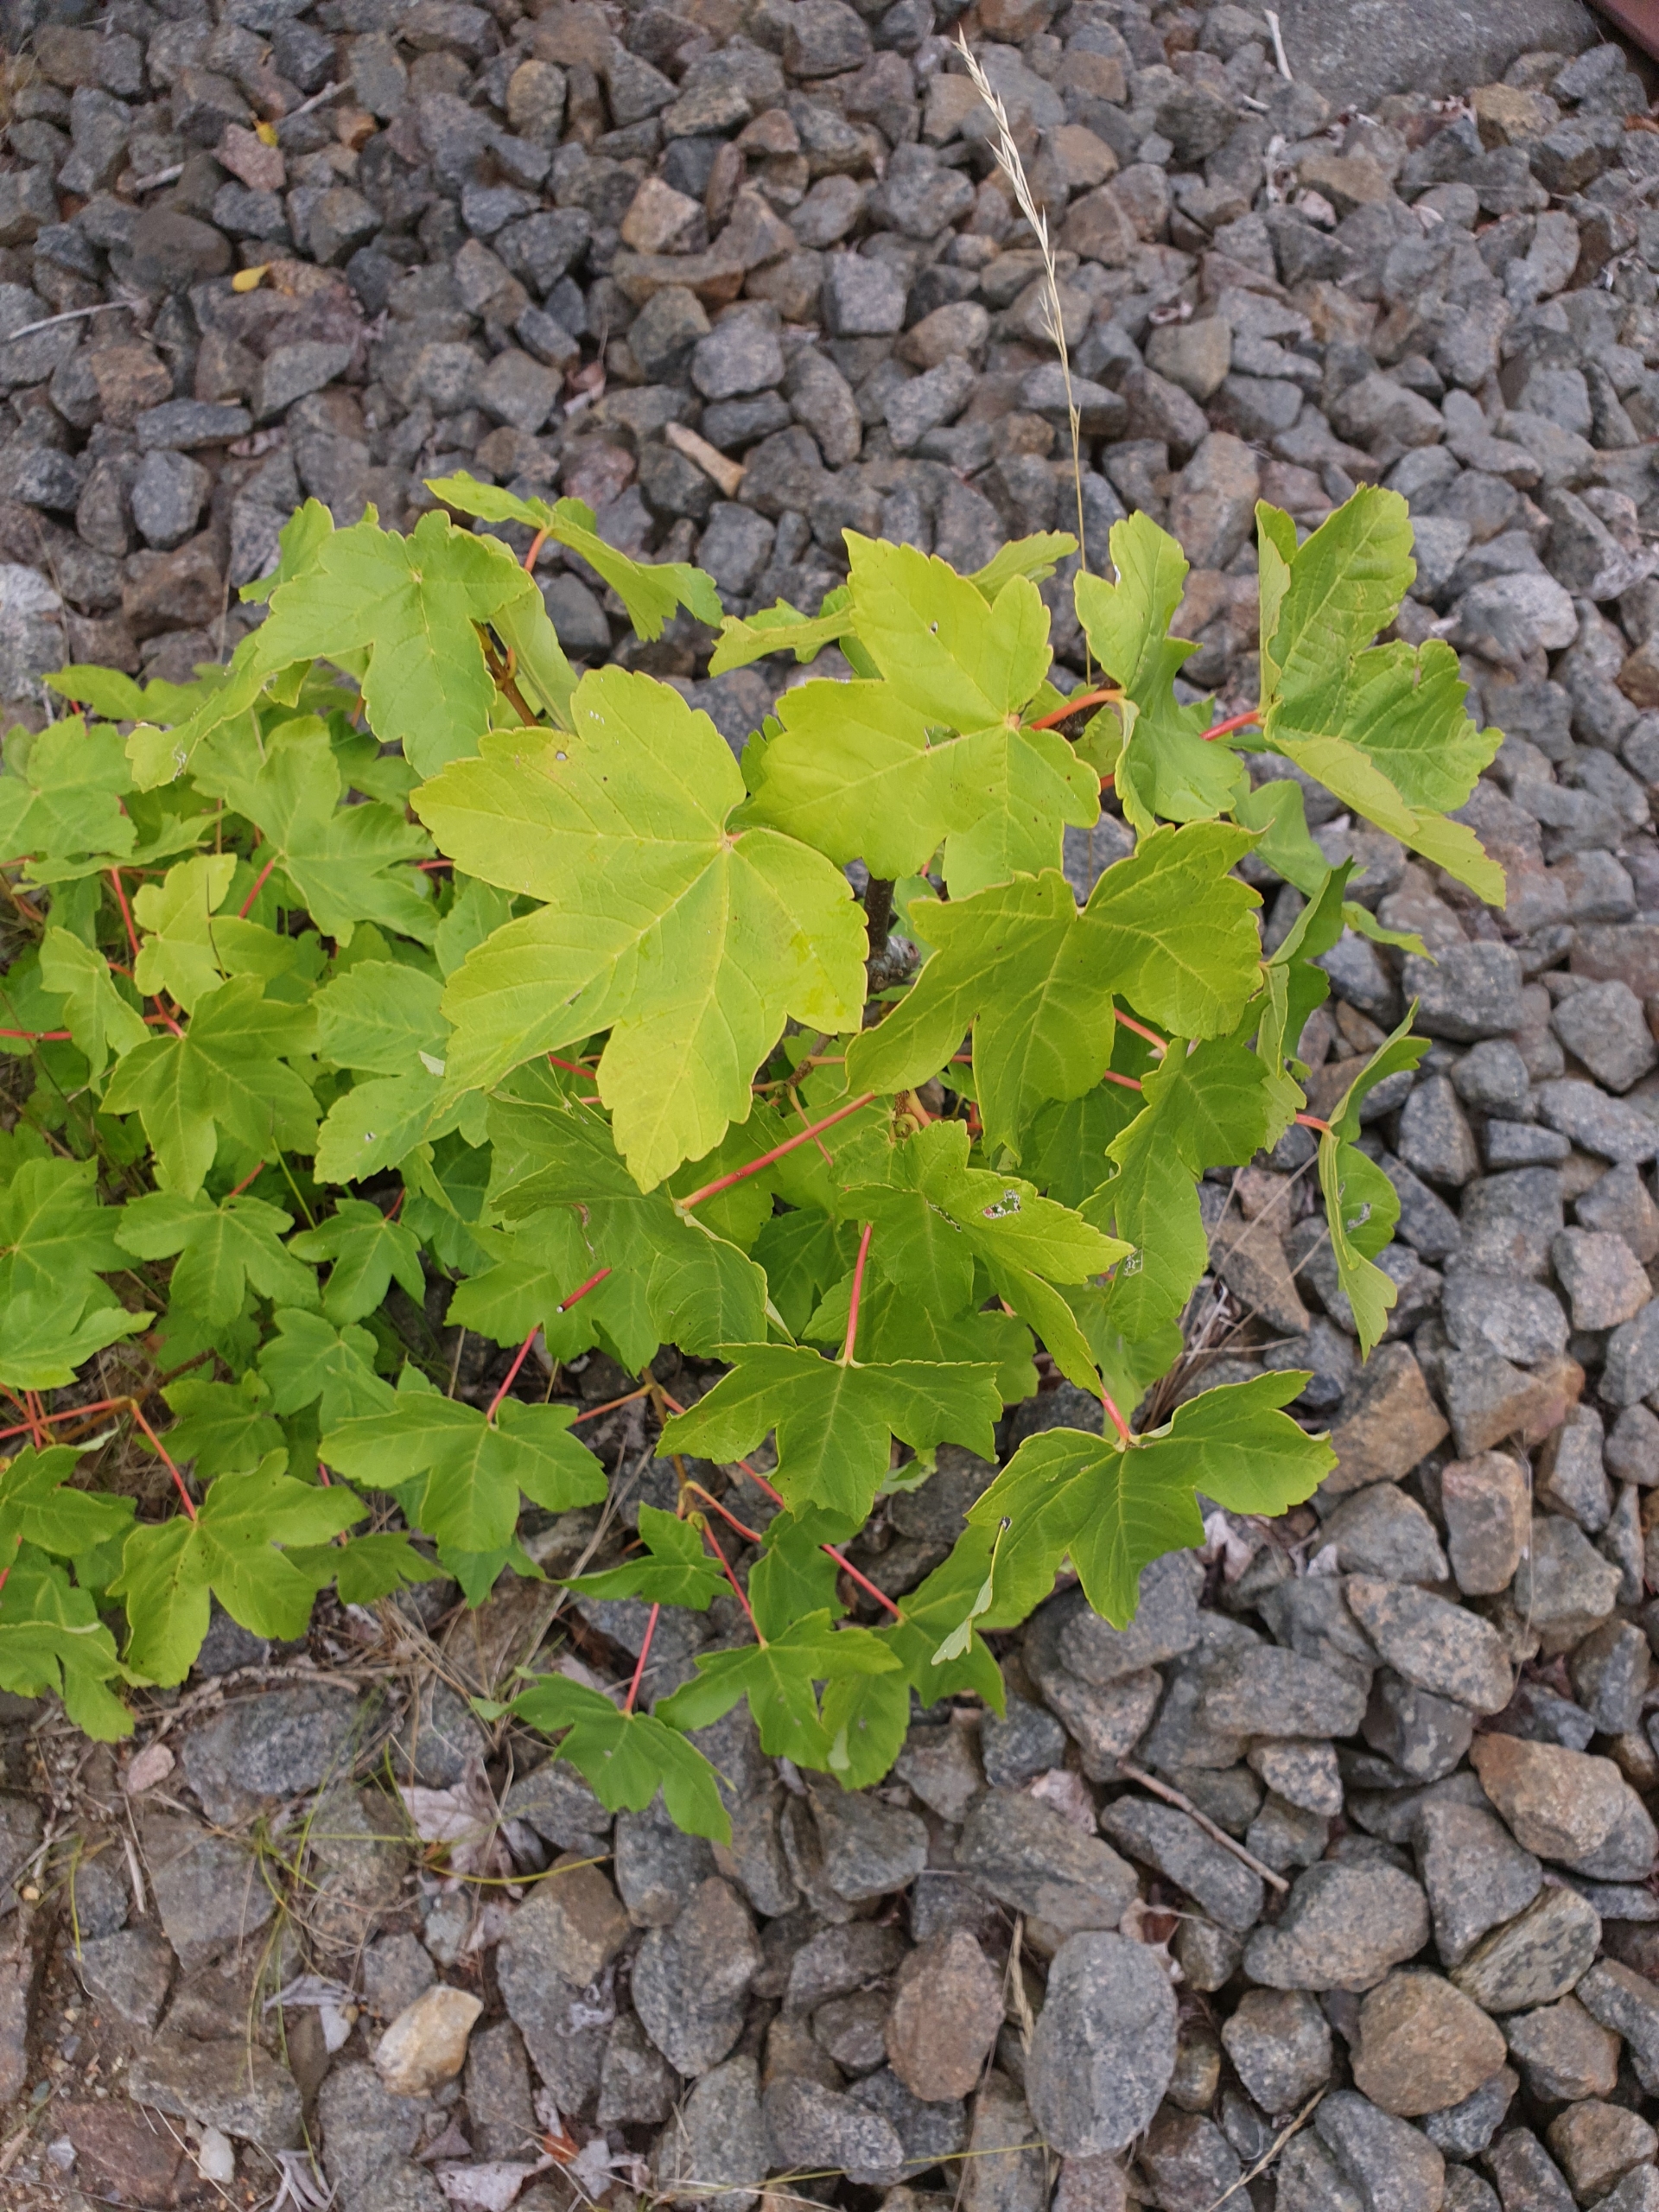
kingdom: Plantae
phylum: Tracheophyta
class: Magnoliopsida
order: Sapindales
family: Sapindaceae
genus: Acer
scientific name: Acer pseudoplatanus
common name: Ahorn
